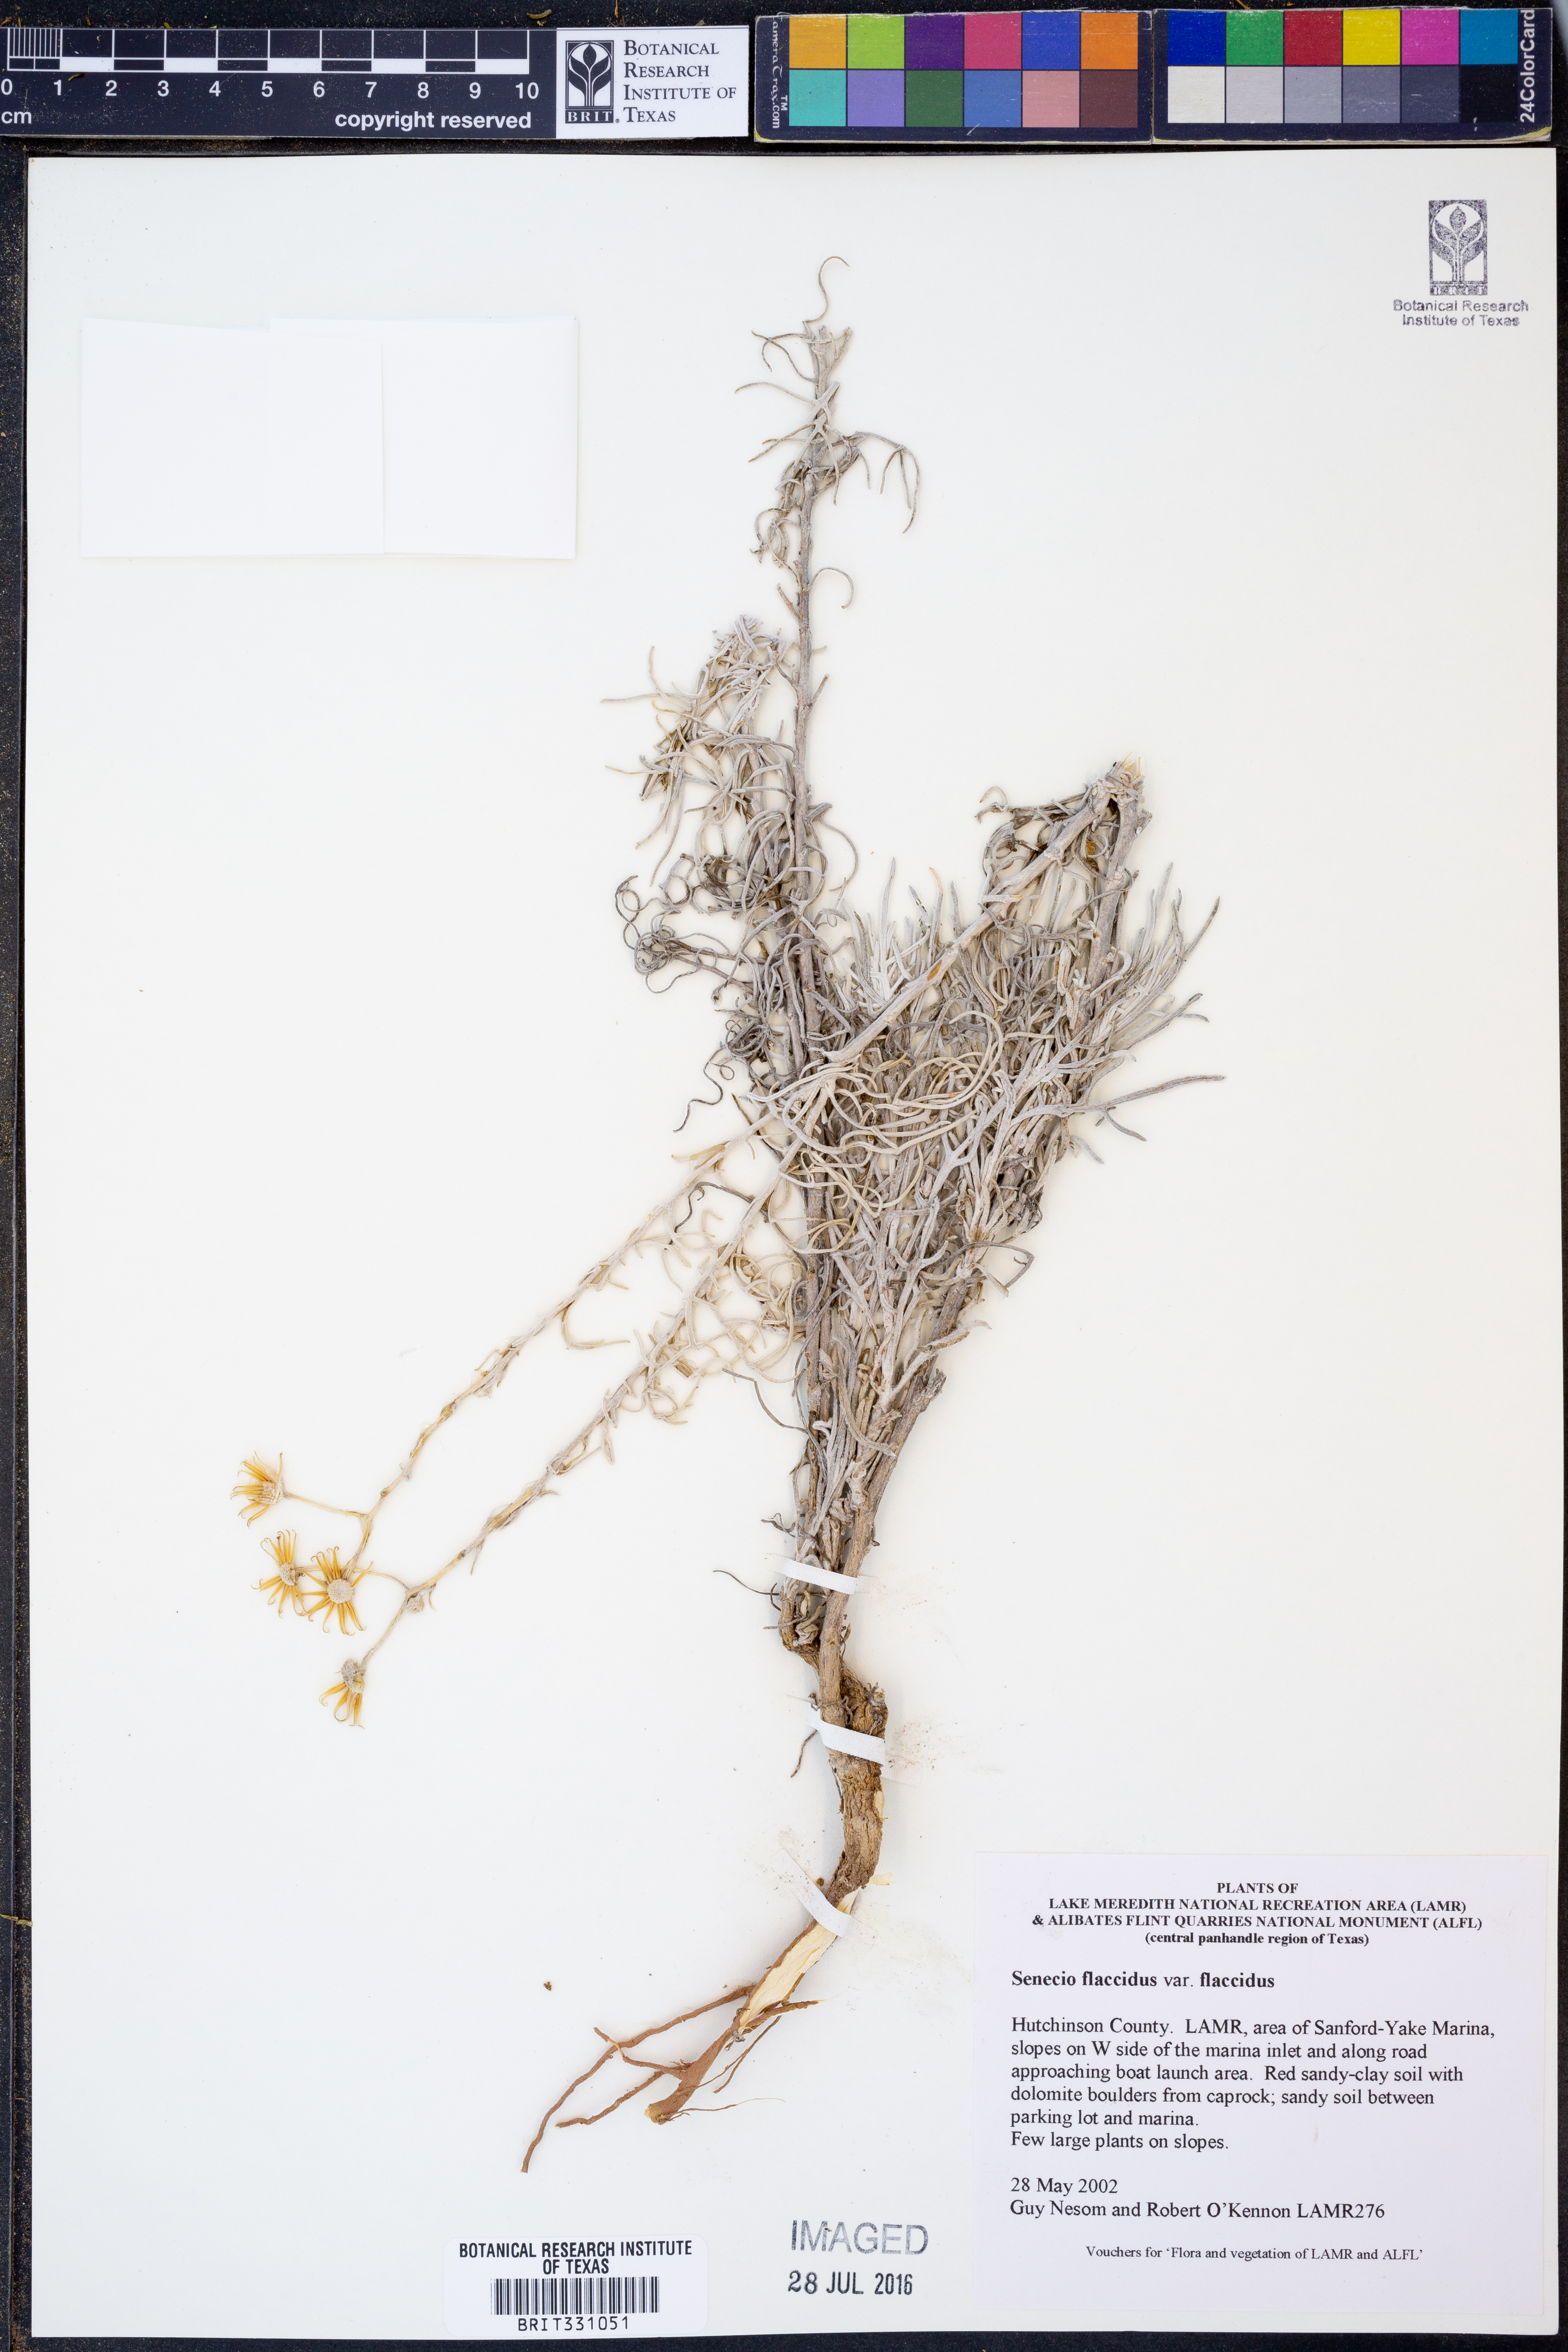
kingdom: Plantae
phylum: Tracheophyta
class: Magnoliopsida
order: Asterales
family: Asteraceae
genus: Senecio
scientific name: Senecio flaccidus
